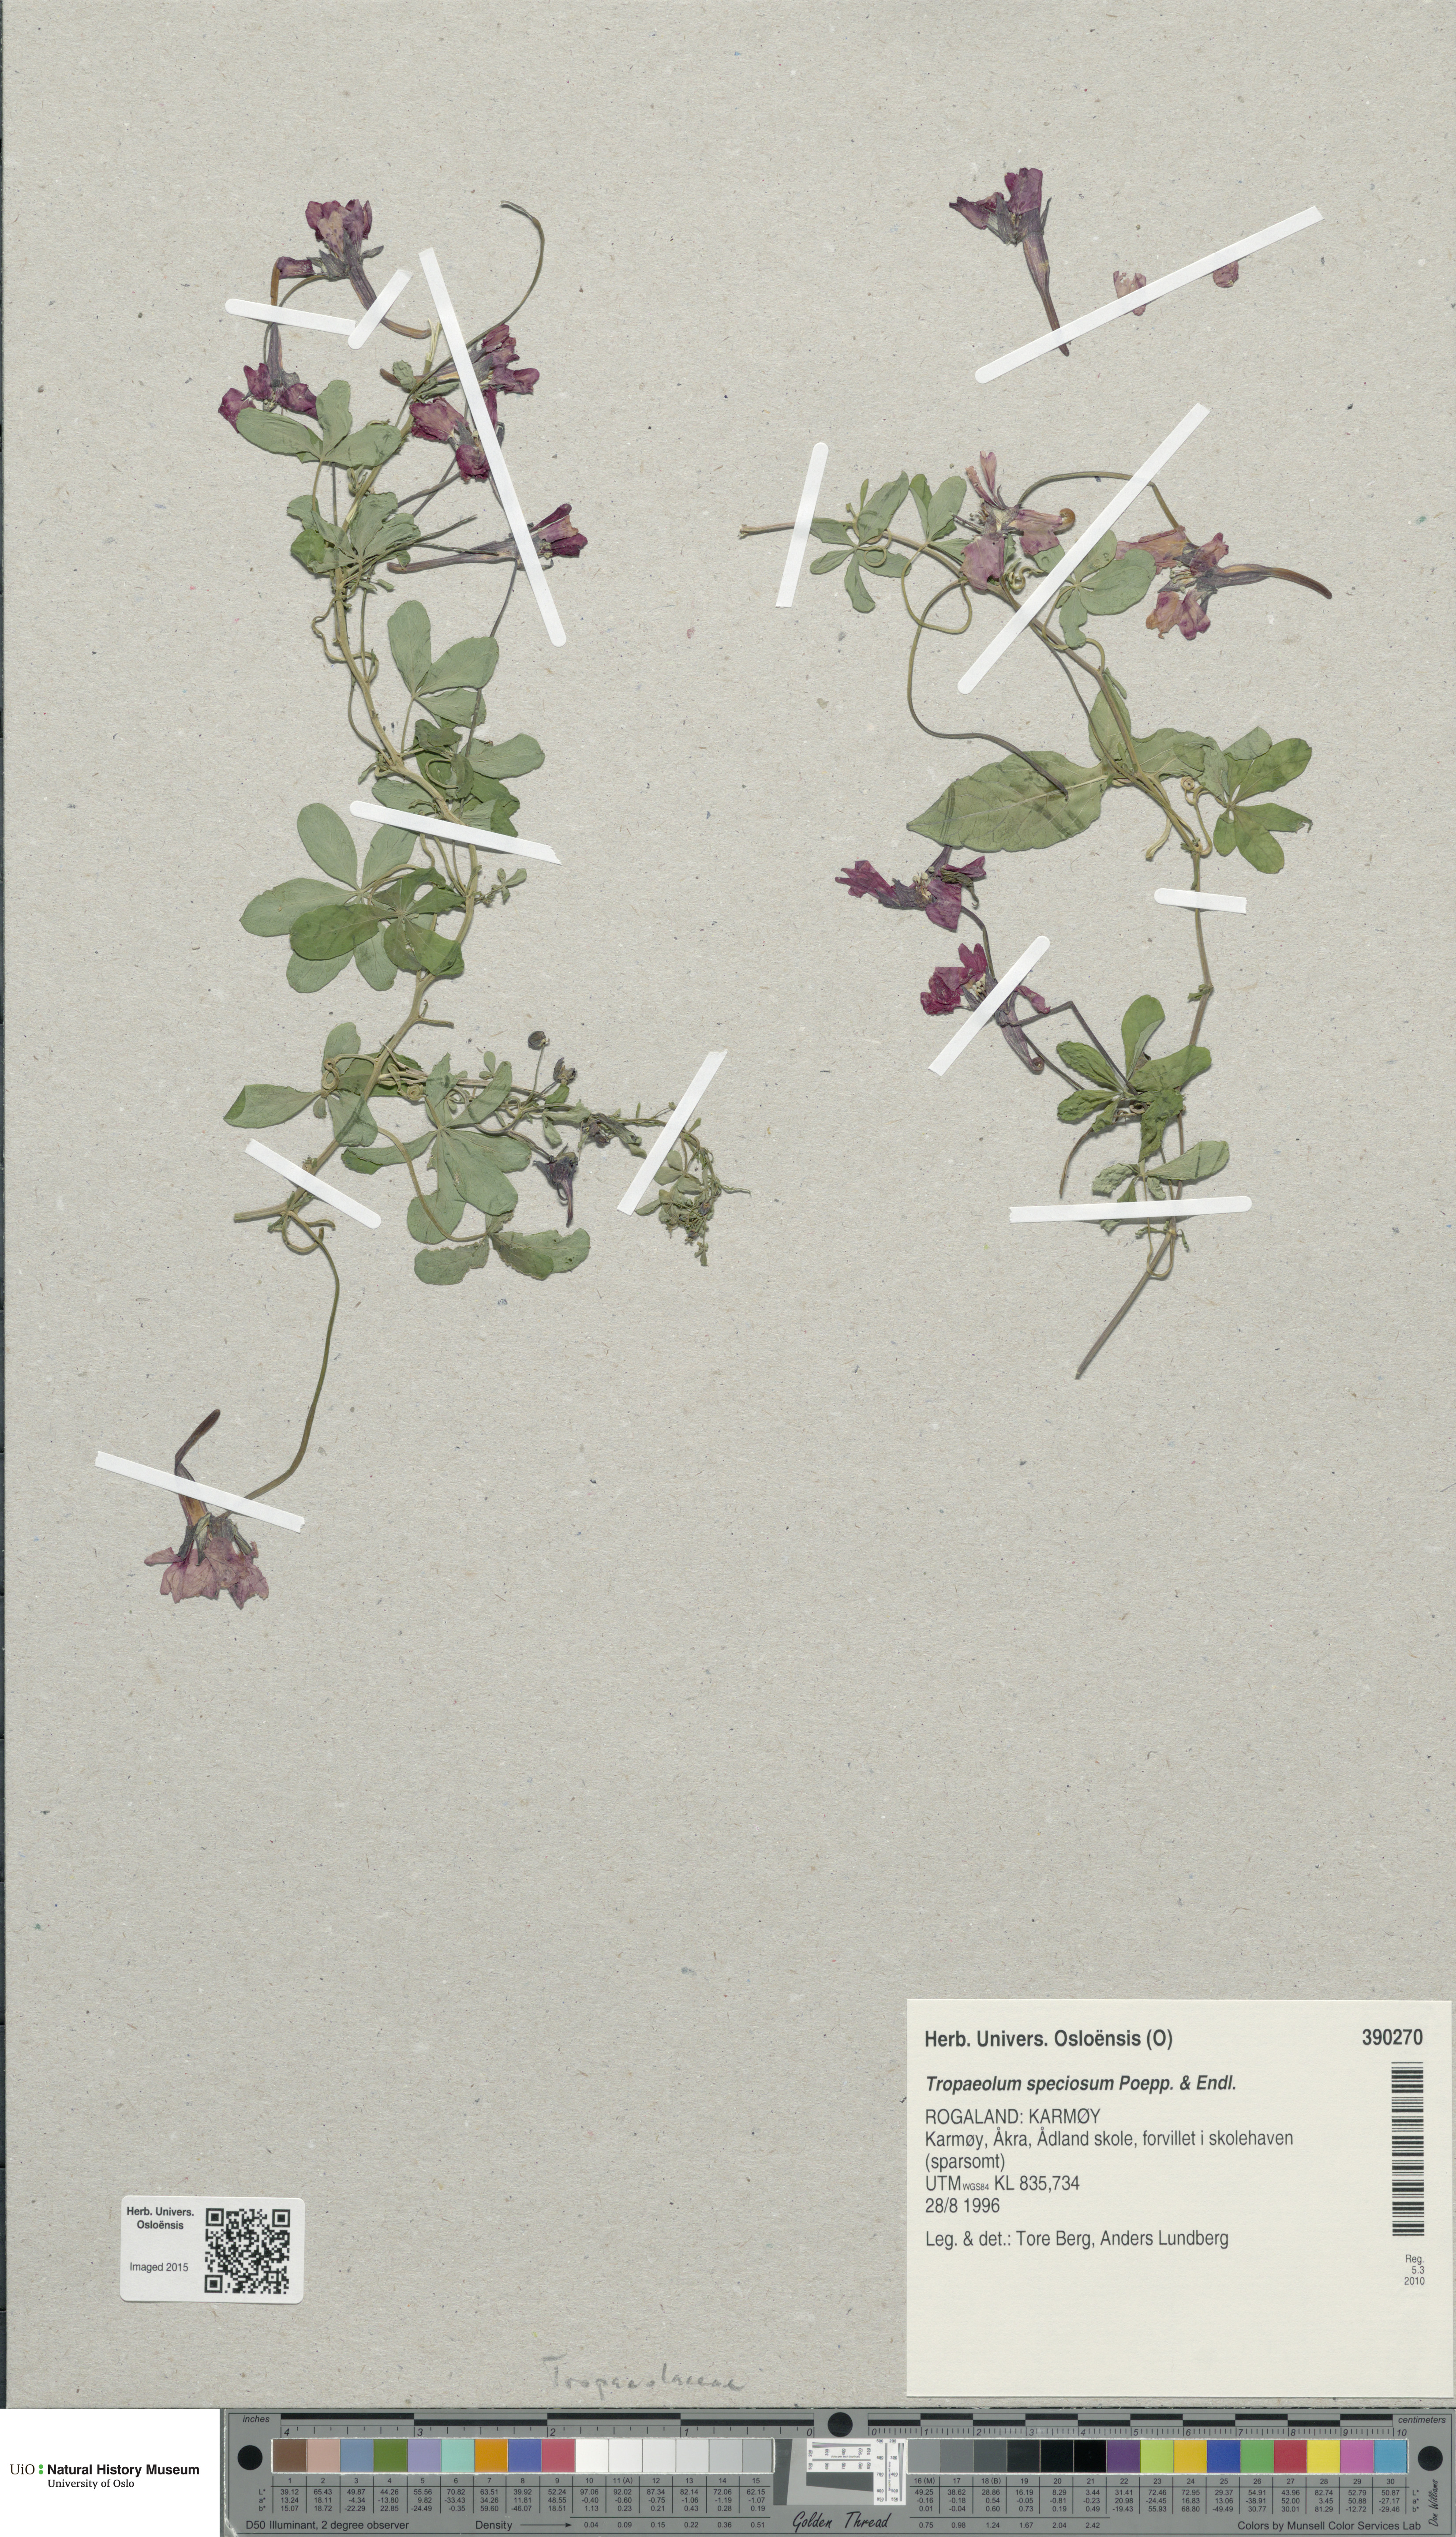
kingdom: Plantae
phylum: Tracheophyta
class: Magnoliopsida
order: Brassicales
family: Tropaeolaceae
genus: Tropaeolum
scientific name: Tropaeolum speciosum
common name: Flame nasturtium
